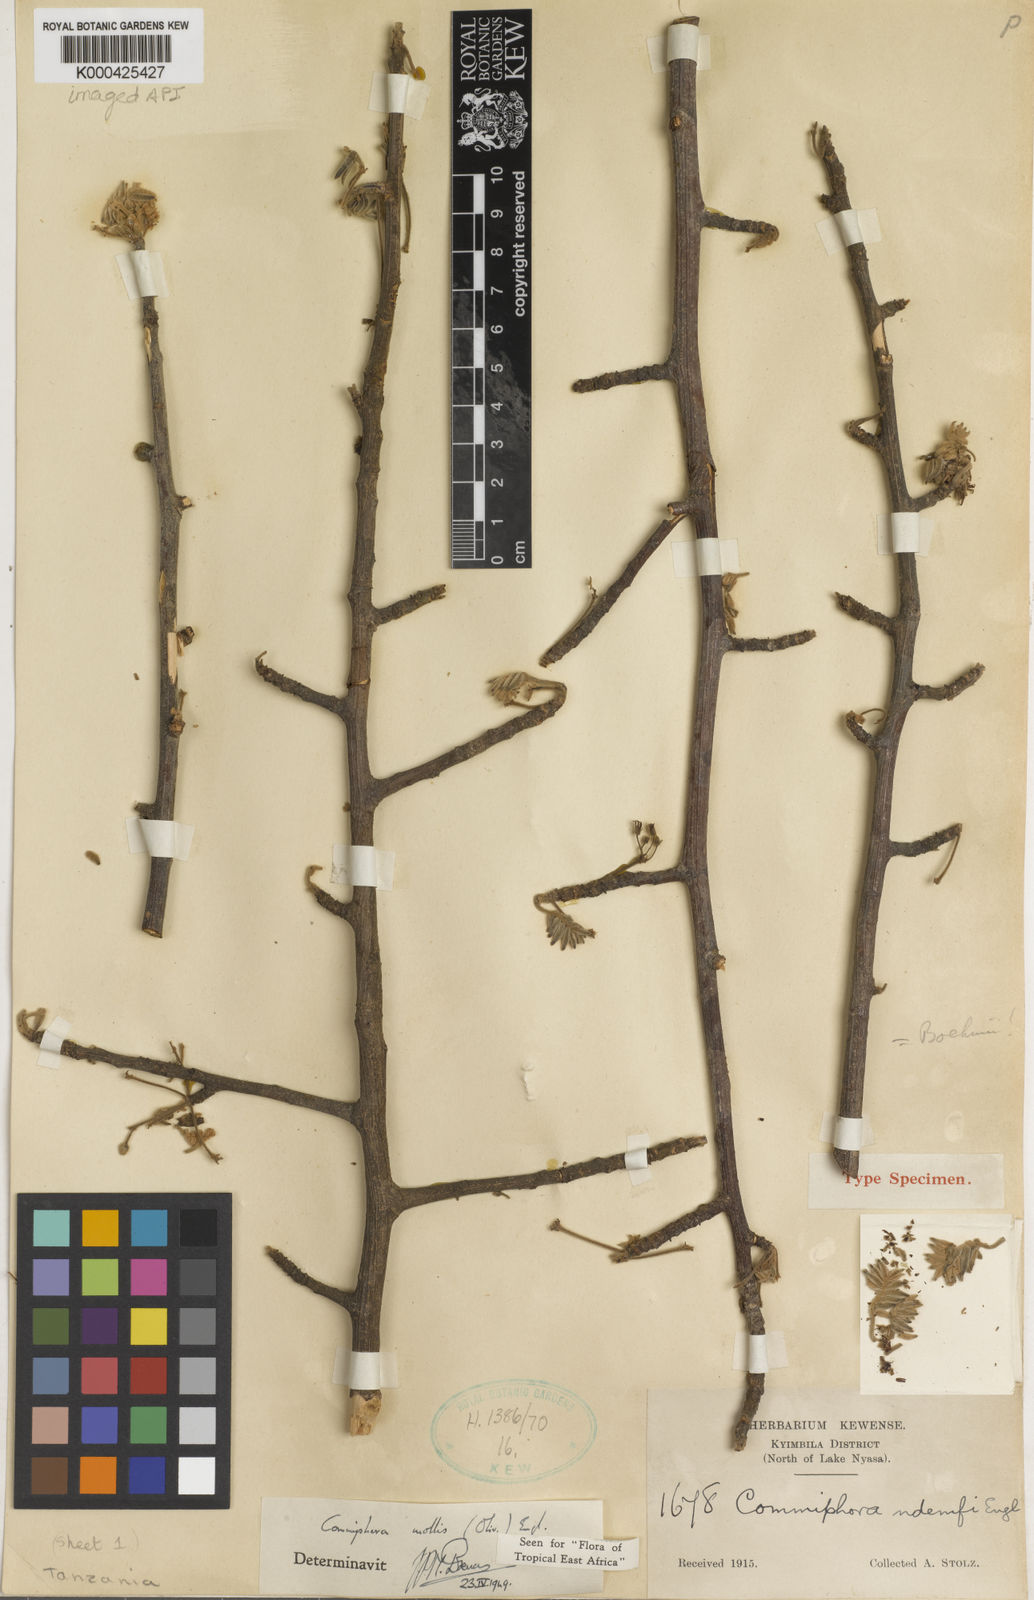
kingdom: Plantae
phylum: Tracheophyta
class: Magnoliopsida
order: Sapindales
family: Burseraceae
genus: Commiphora
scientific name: Commiphora mollis
